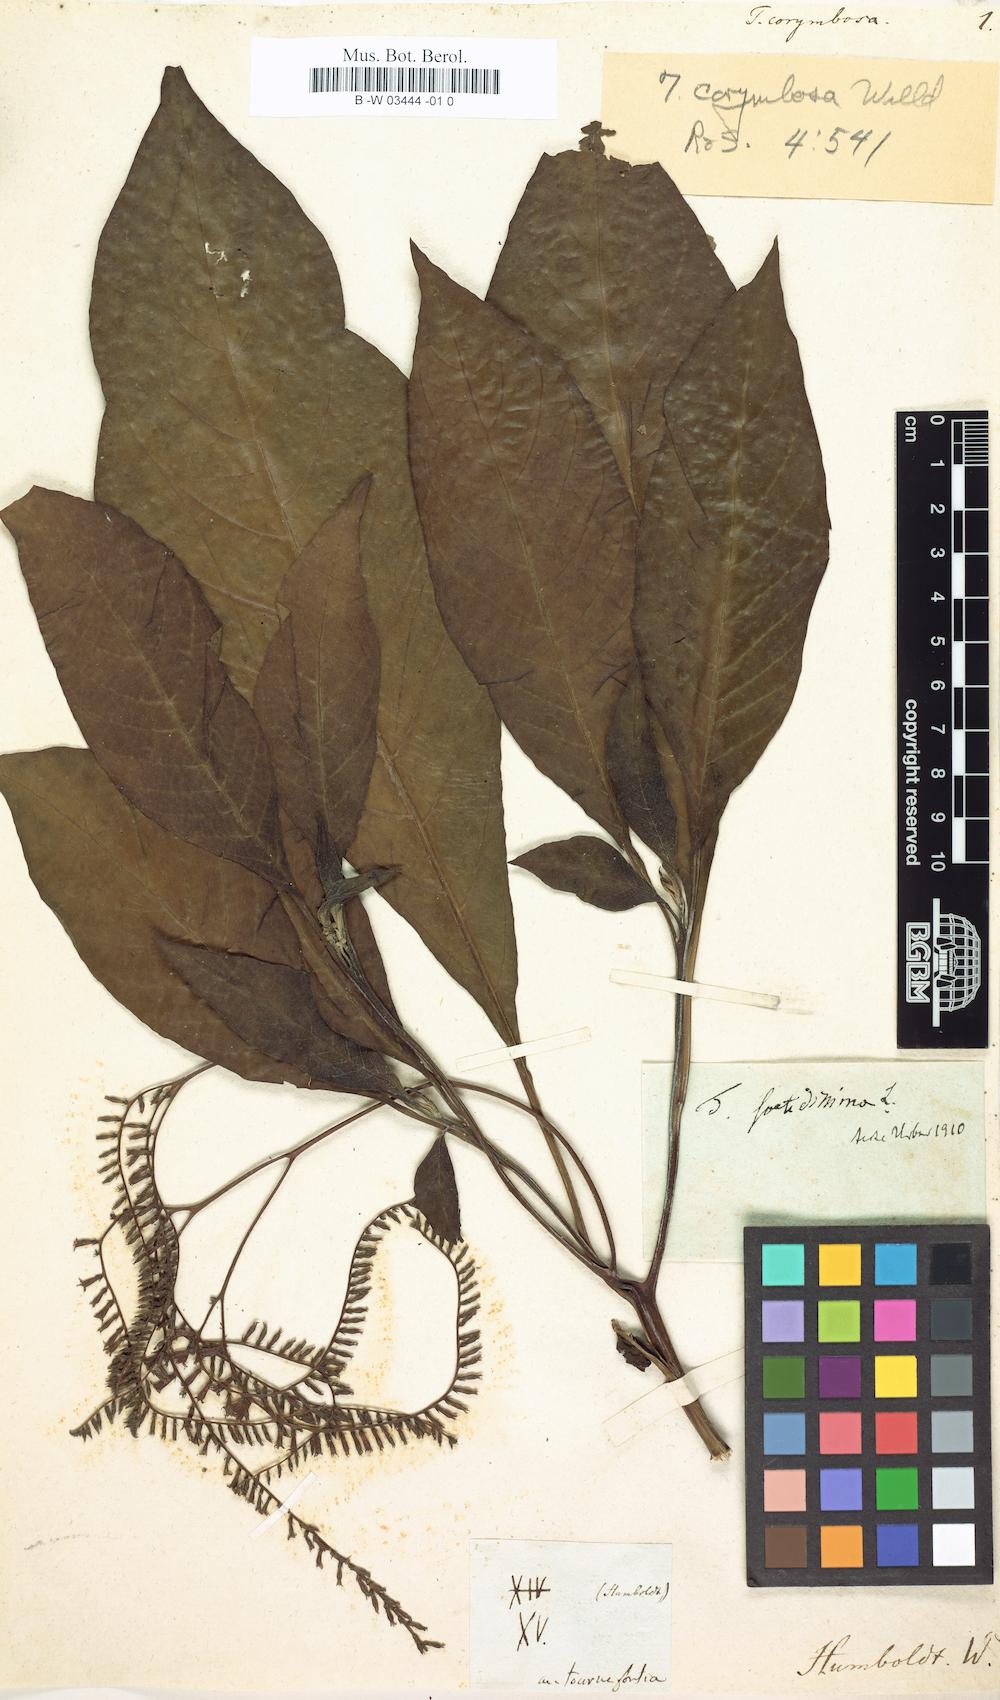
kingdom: Plantae
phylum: Tracheophyta
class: Magnoliopsida
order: Boraginales
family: Heliotropiaceae
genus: Heliotropium
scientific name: Heliotropium foetidissimum
